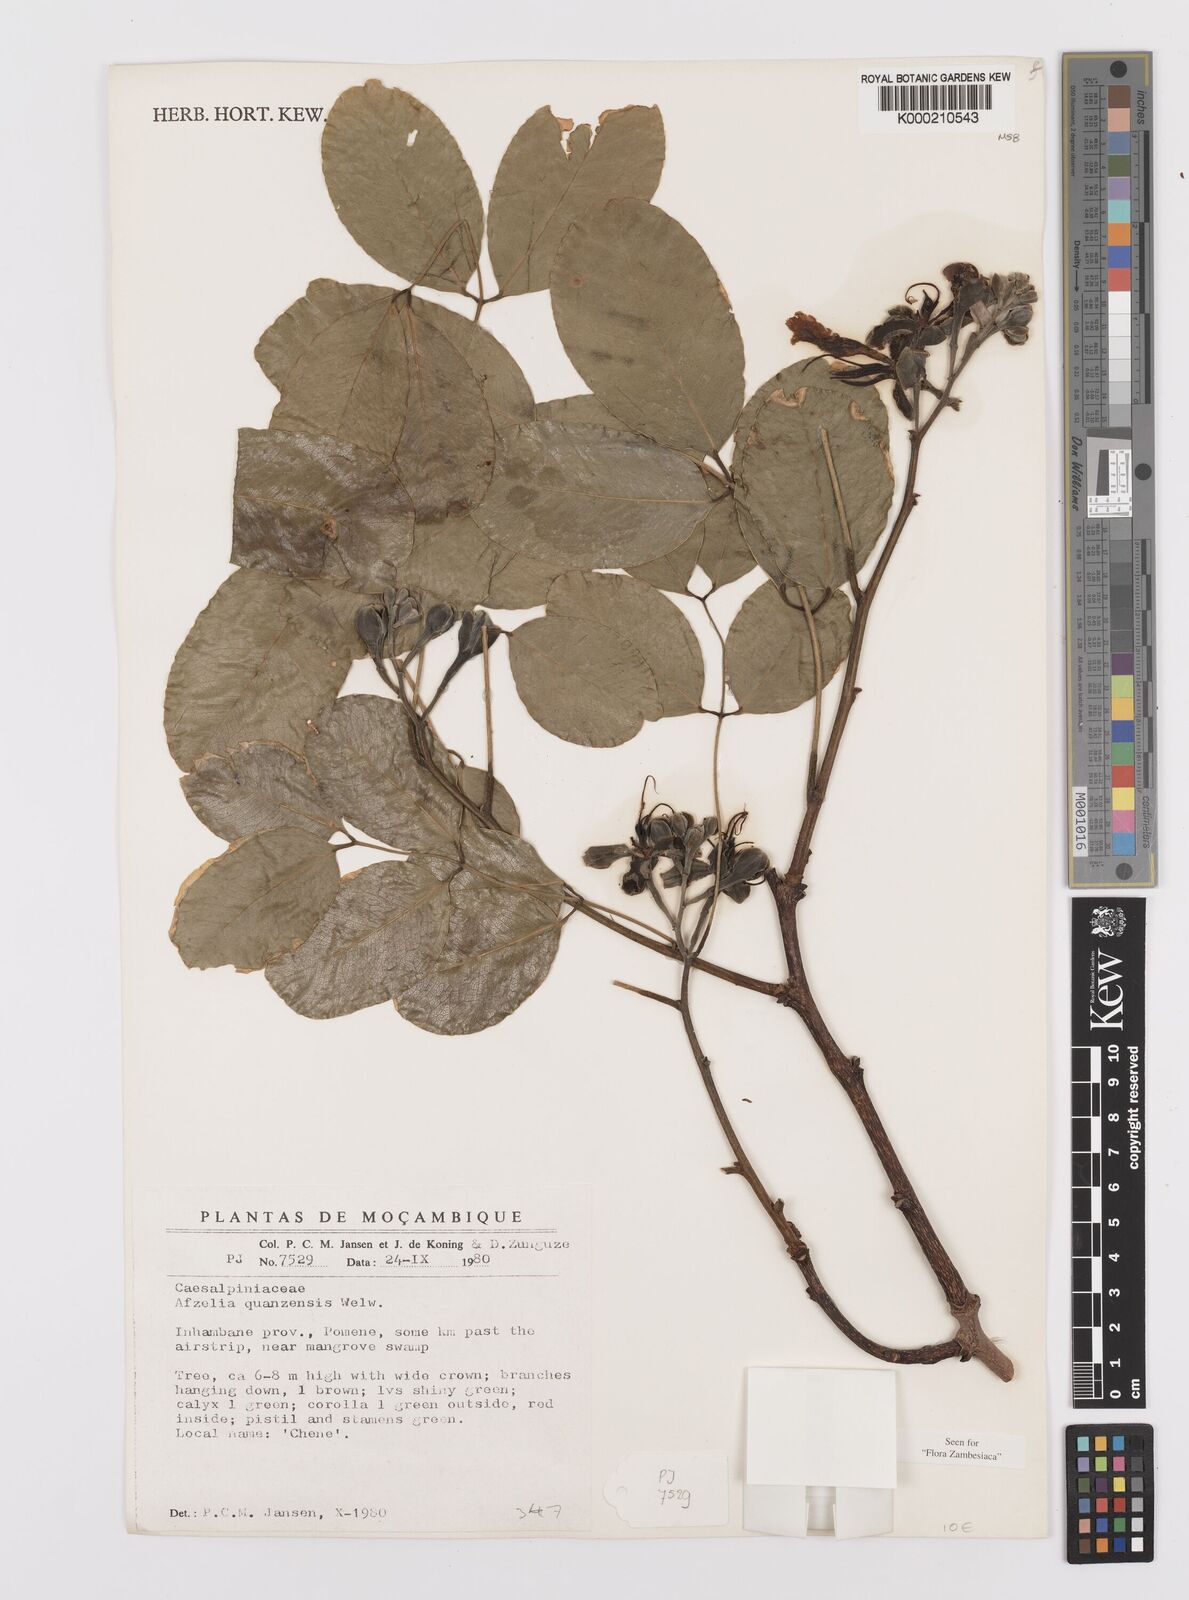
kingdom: Plantae
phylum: Tracheophyta
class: Magnoliopsida
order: Fabales
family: Fabaceae
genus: Afzelia
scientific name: Afzelia quanzensis
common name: Pod mahogany
